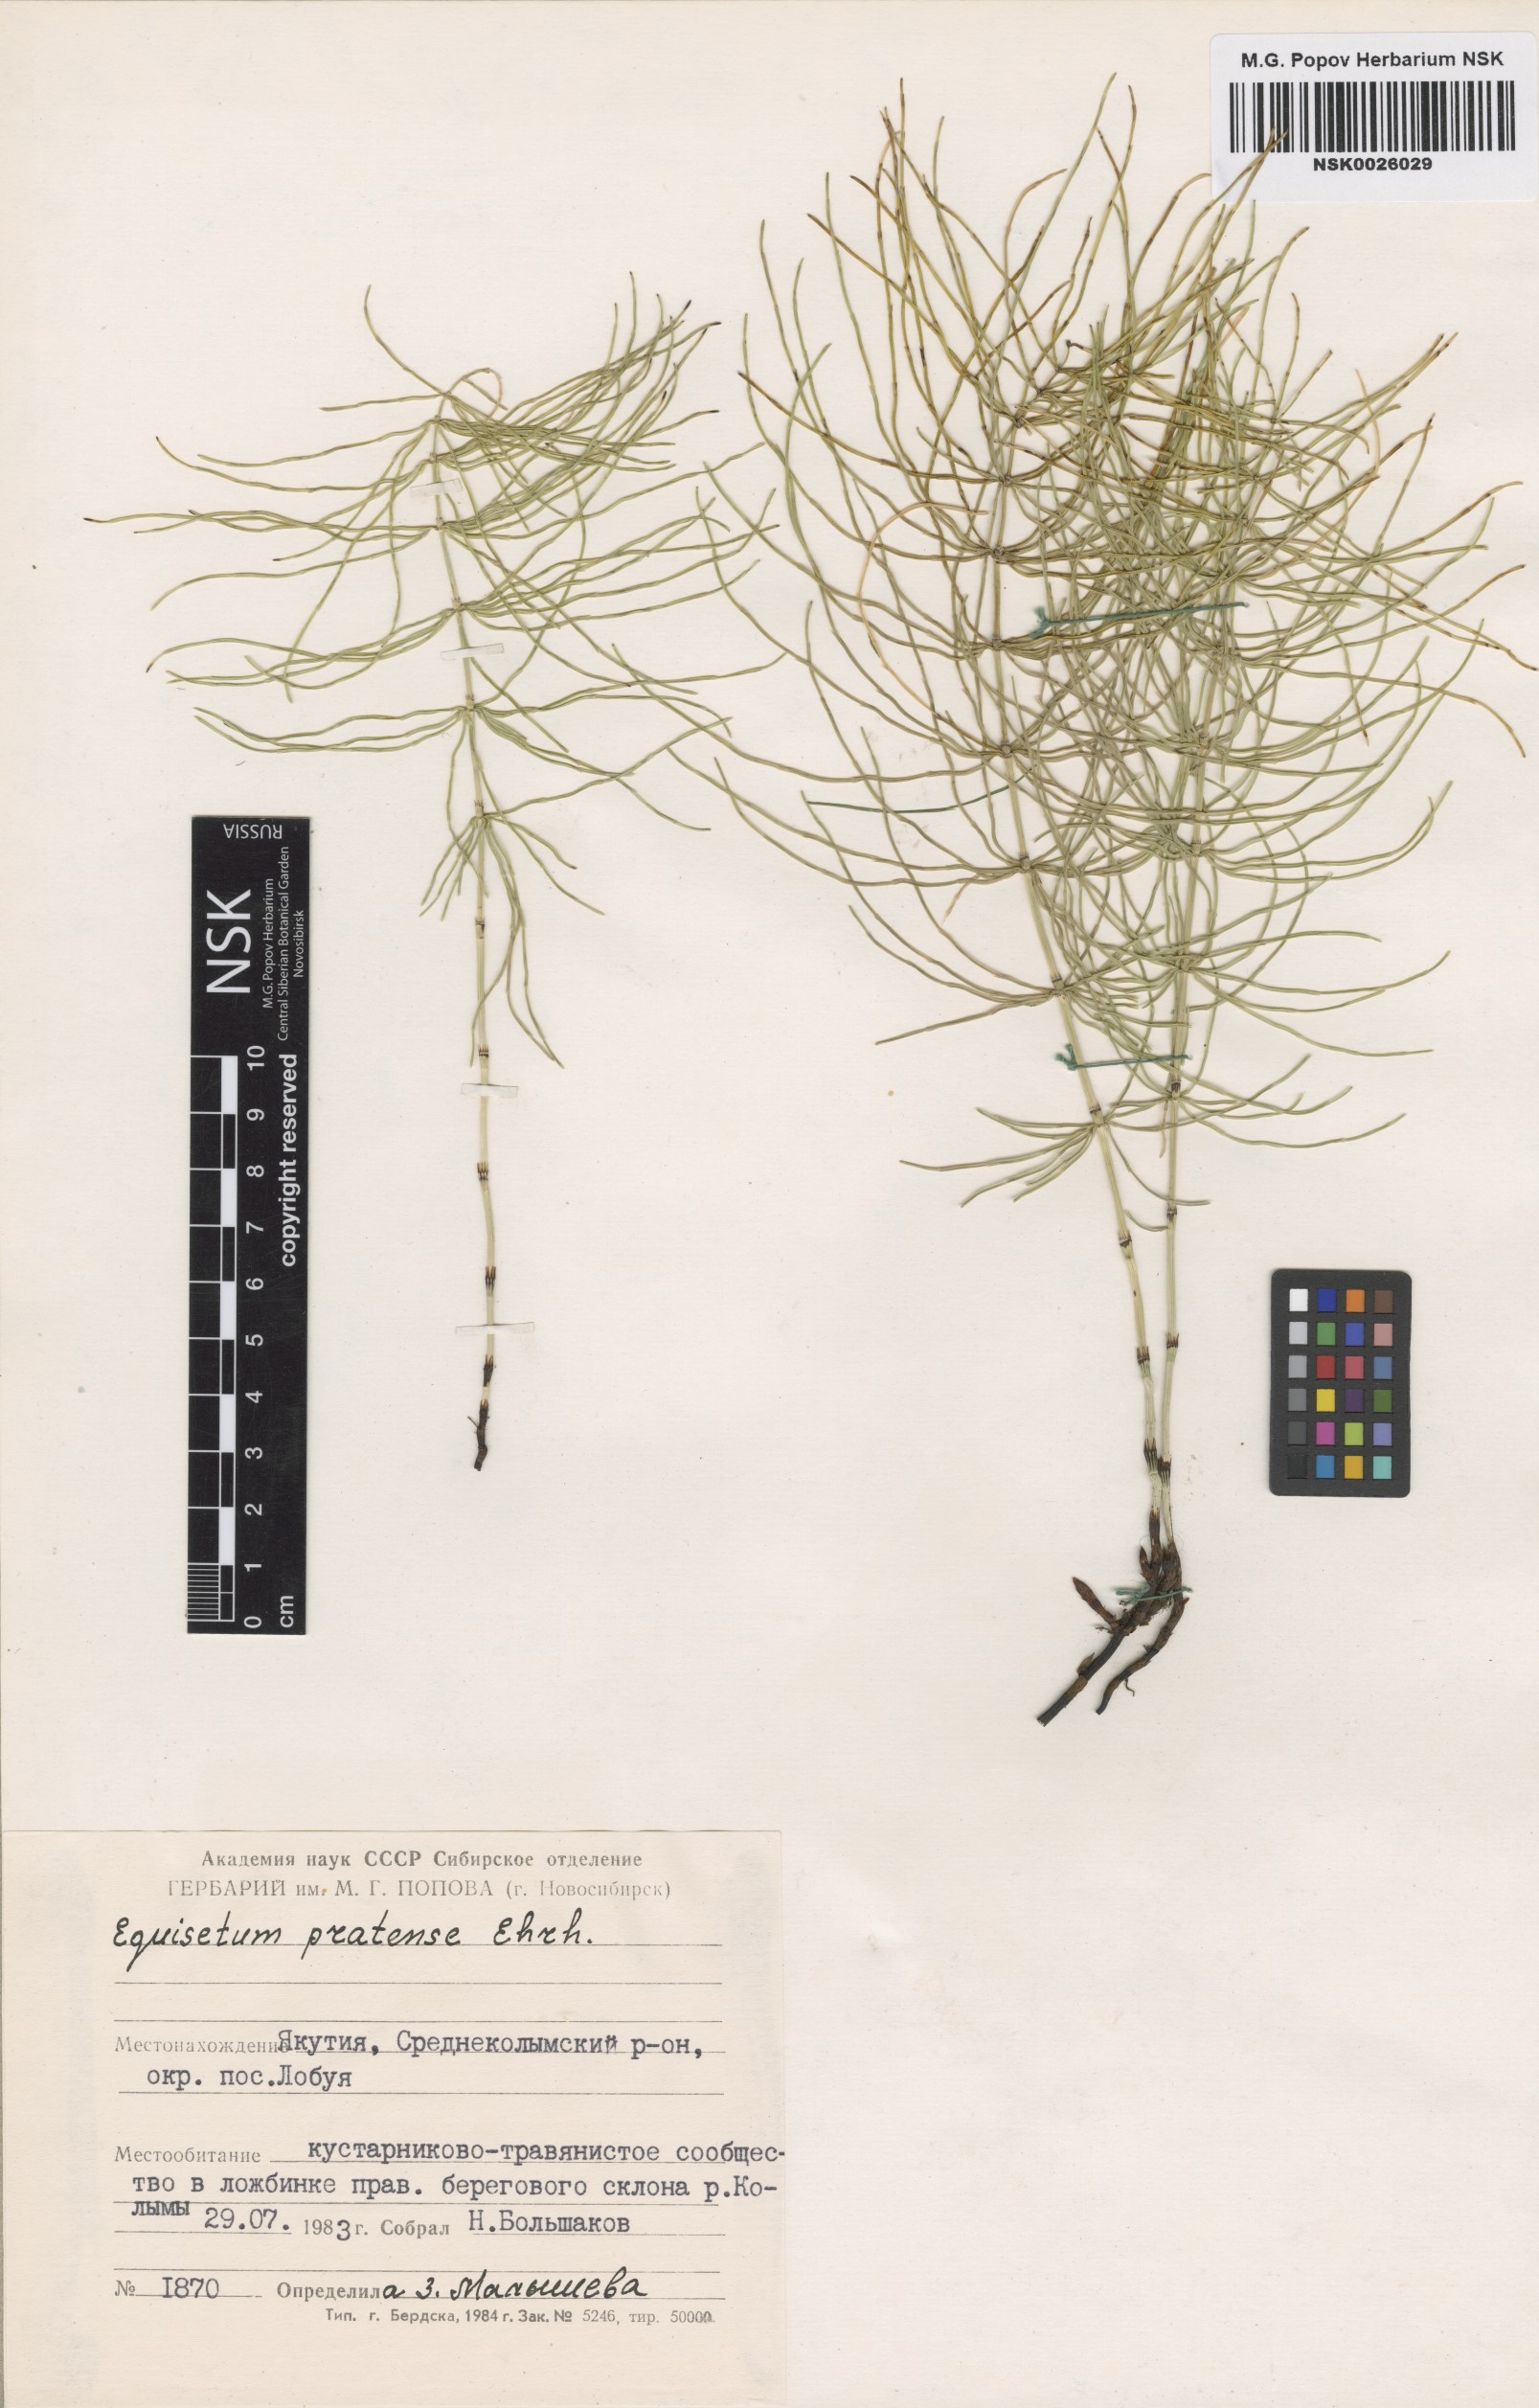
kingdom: Plantae
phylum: Tracheophyta
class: Polypodiopsida
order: Equisetales
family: Equisetaceae
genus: Equisetum
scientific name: Equisetum pratense
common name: Meadow horsetail
